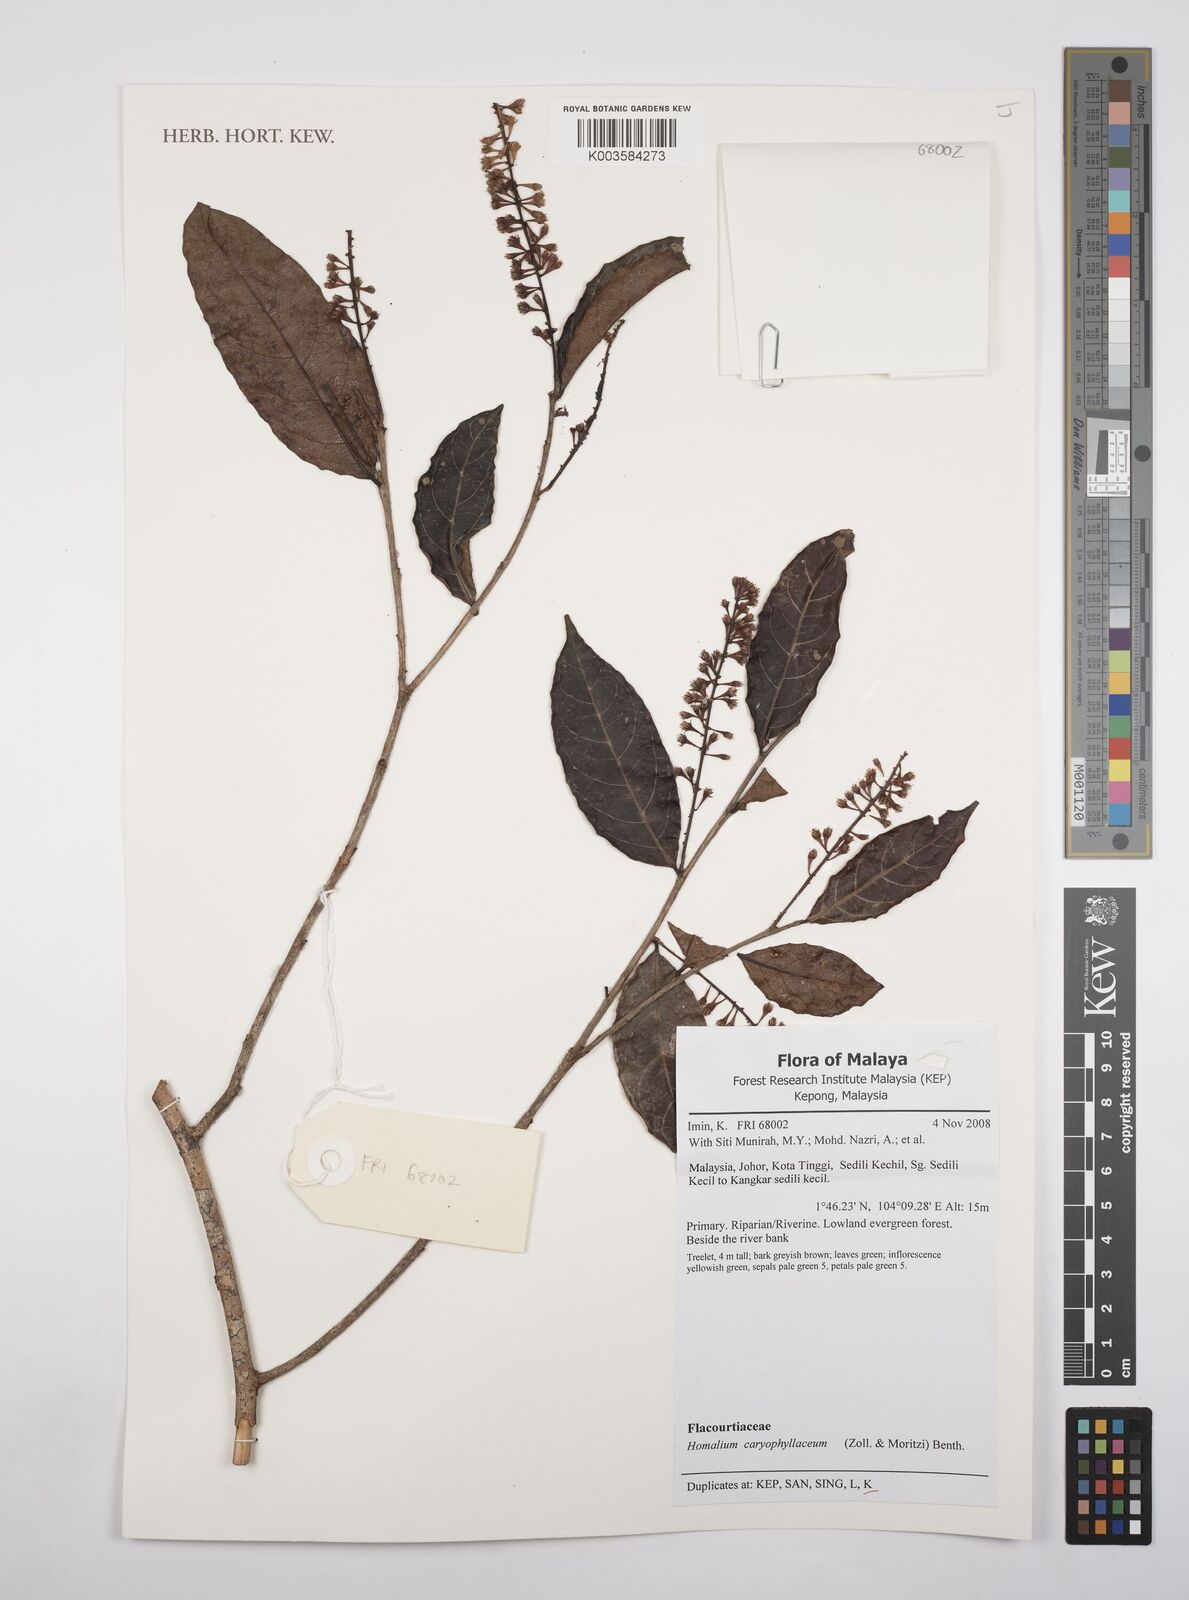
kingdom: Plantae
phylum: Tracheophyta
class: Magnoliopsida
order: Malpighiales
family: Salicaceae
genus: Homalium
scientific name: Homalium caryophyllaceum
